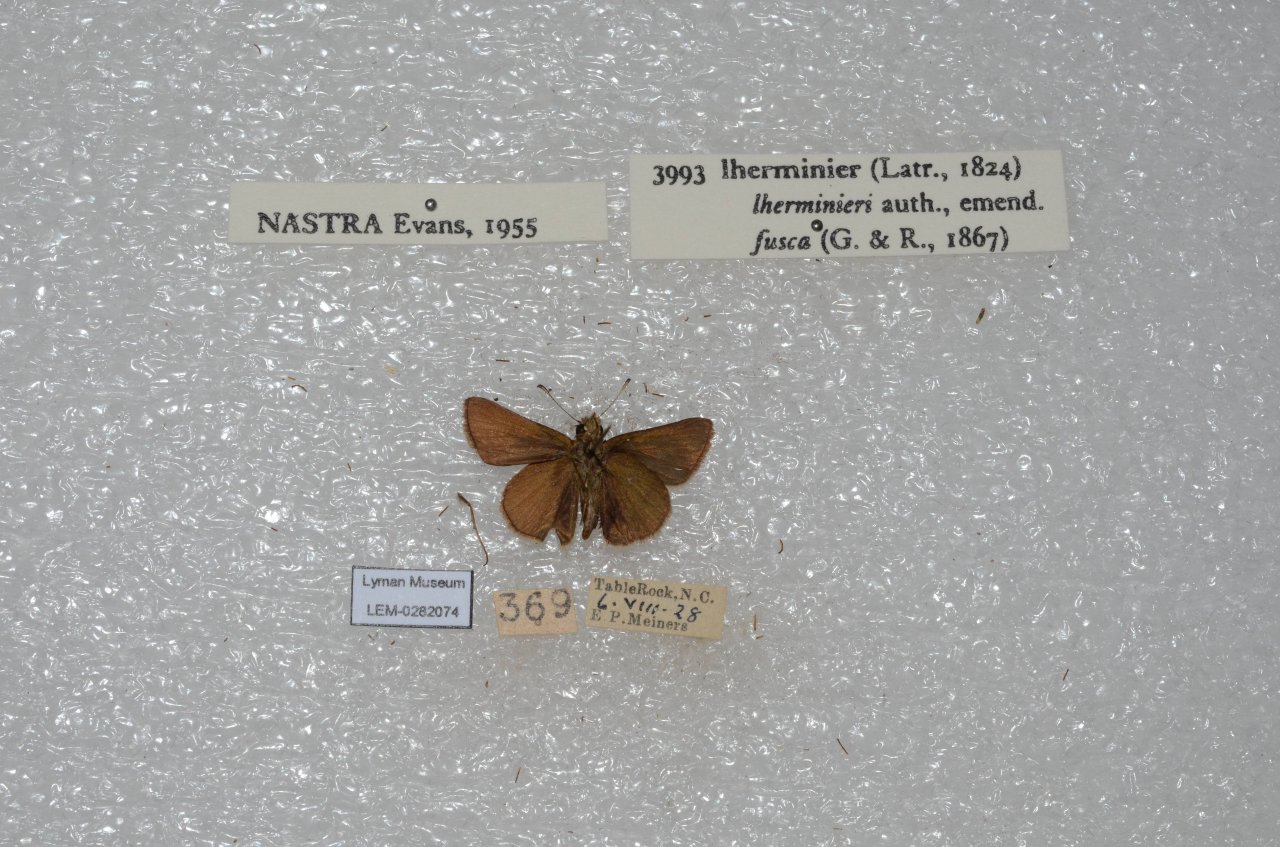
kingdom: Animalia
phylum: Arthropoda
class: Insecta
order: Lepidoptera
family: Hesperiidae
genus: Nastra
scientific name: Nastra lherminier
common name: Swarthy Skipper
